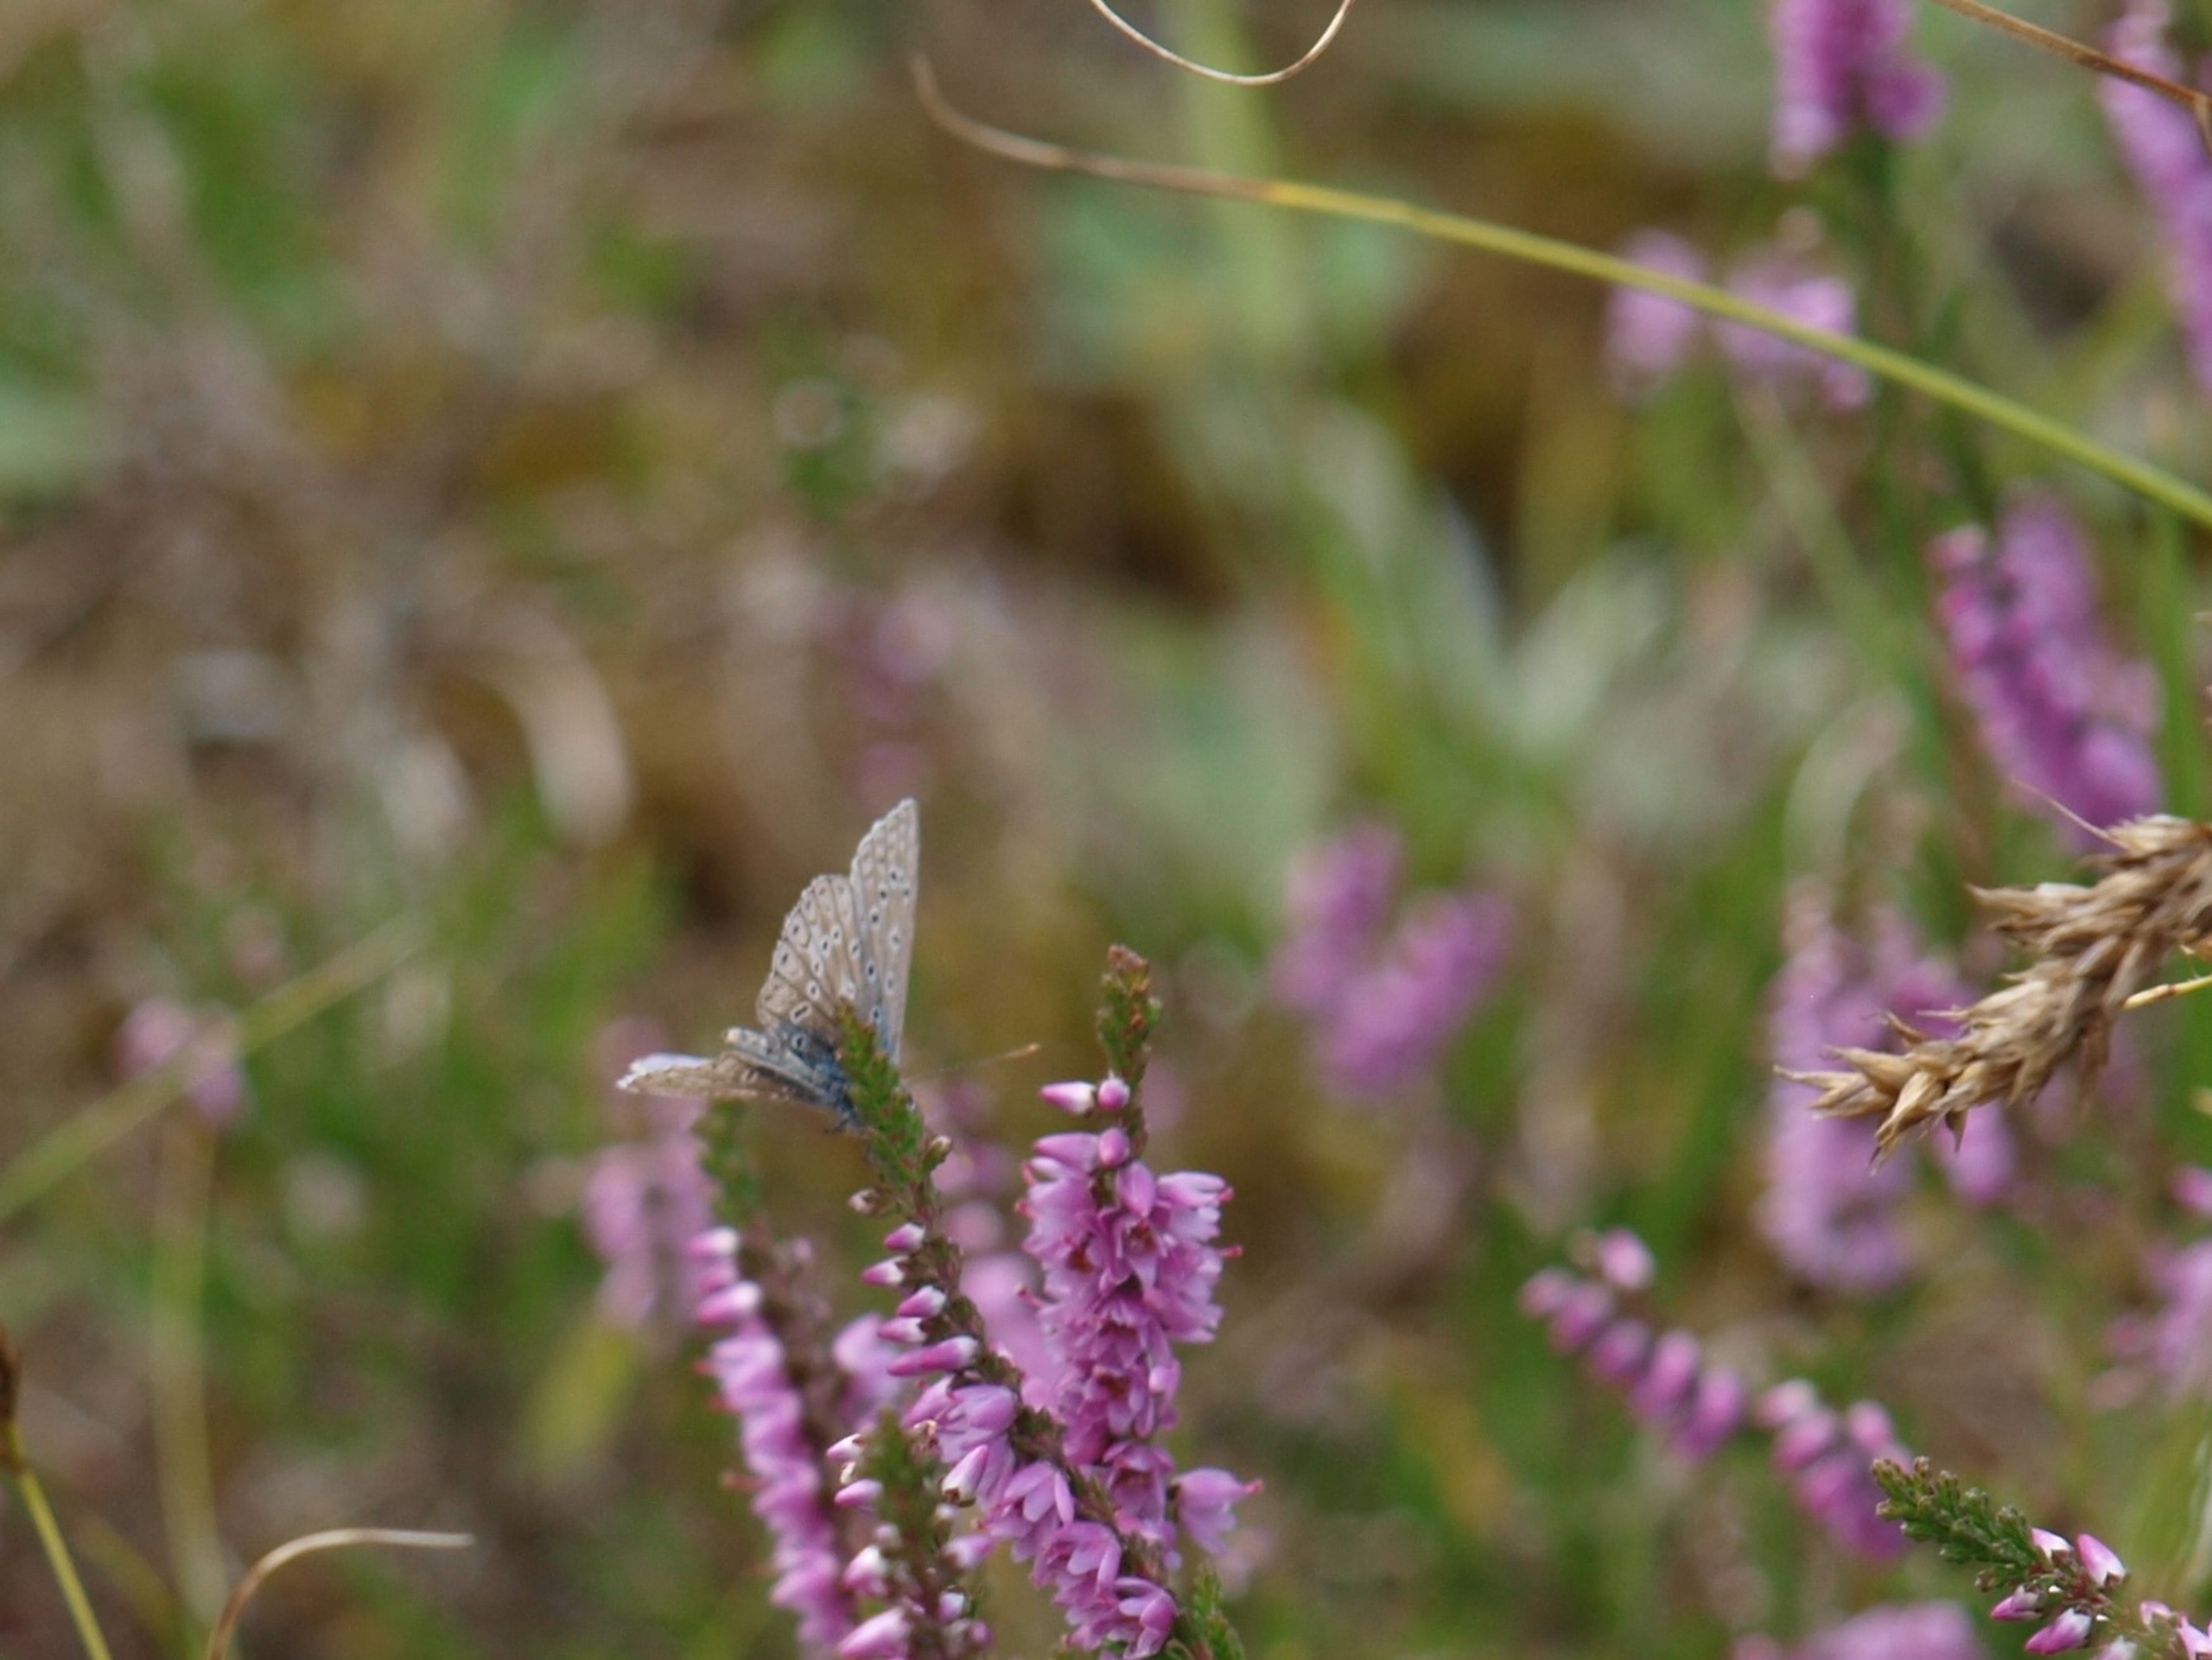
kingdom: Animalia
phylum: Arthropoda
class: Insecta
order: Lepidoptera
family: Lycaenidae
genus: Polyommatus
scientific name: Polyommatus icarus
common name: Almindelig blåfugl
